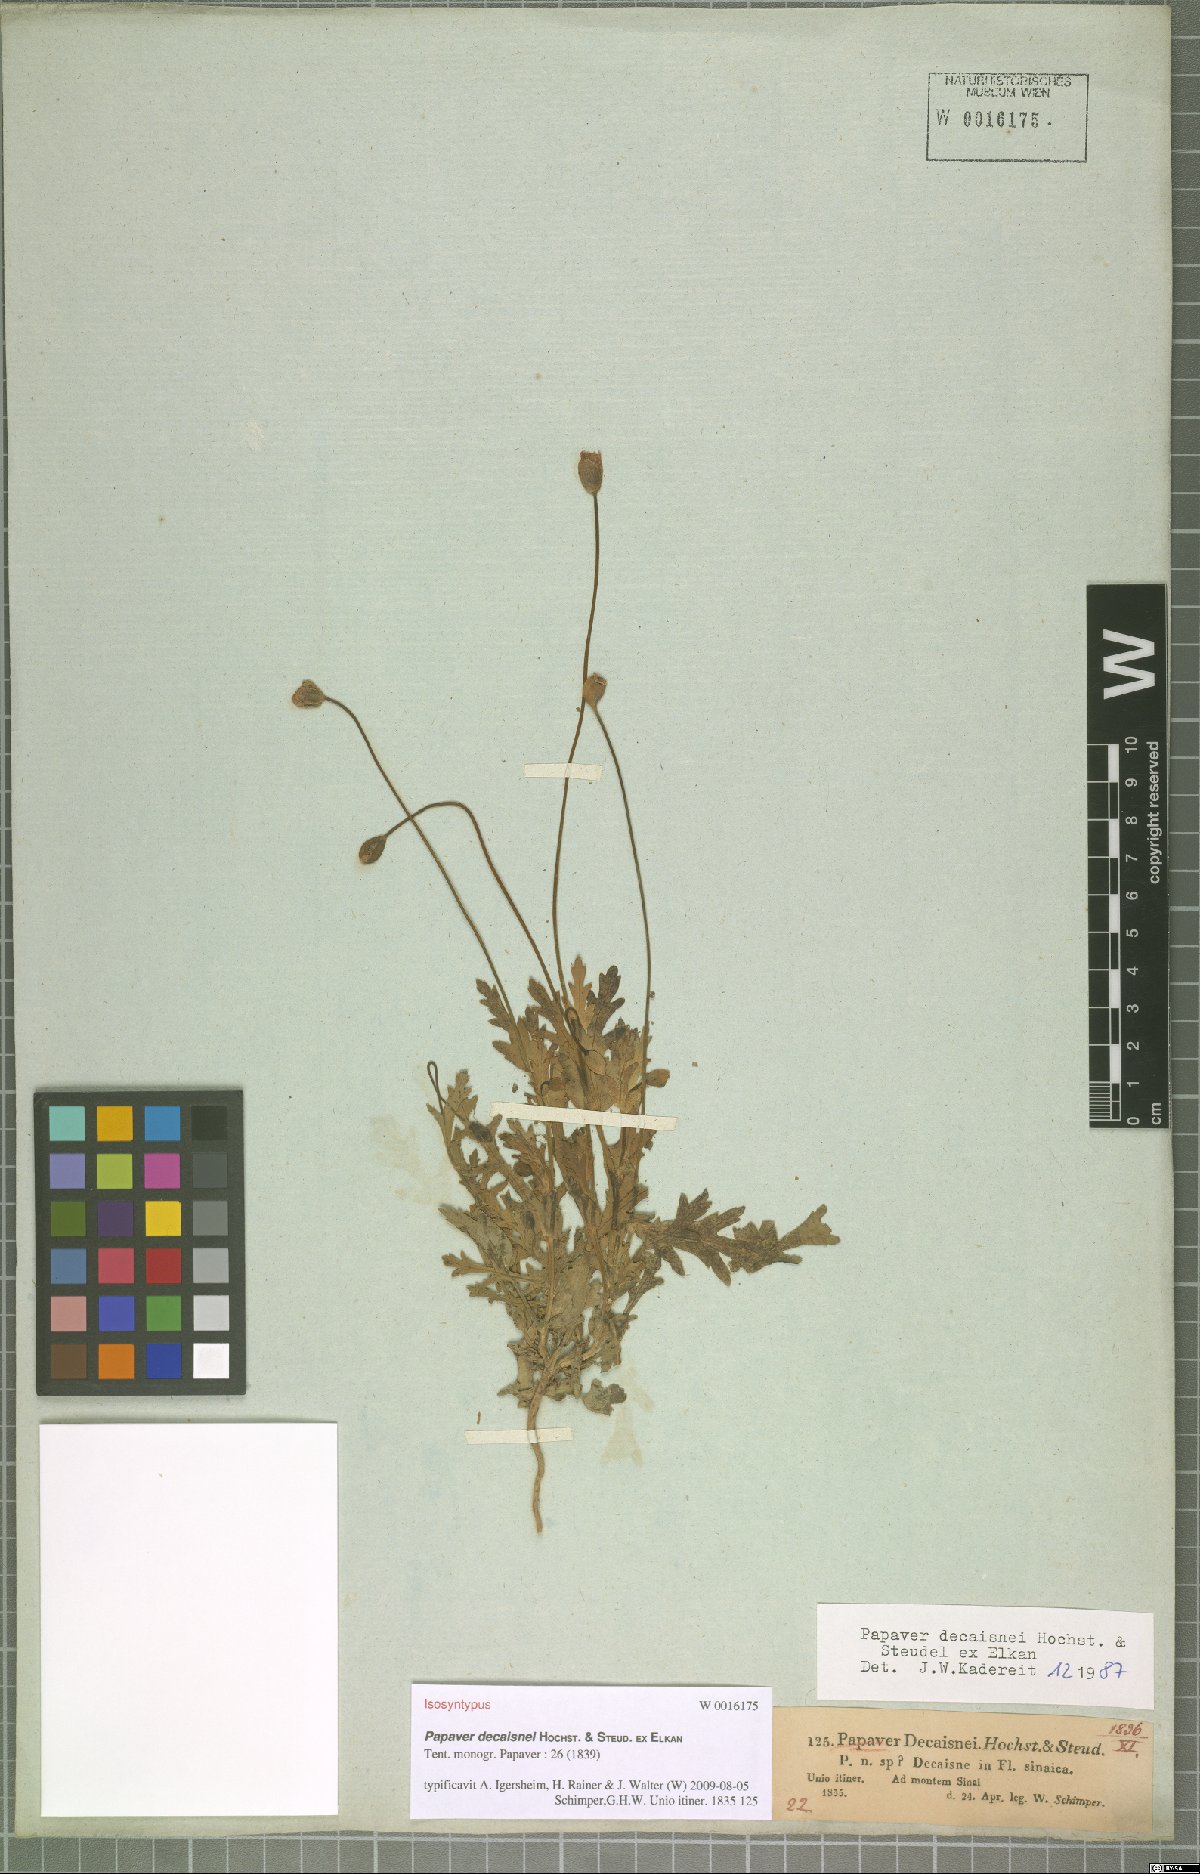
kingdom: Plantae
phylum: Tracheophyta
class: Magnoliopsida
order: Ranunculales
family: Papaveraceae
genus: Papaver
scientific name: Papaver decaisnei
